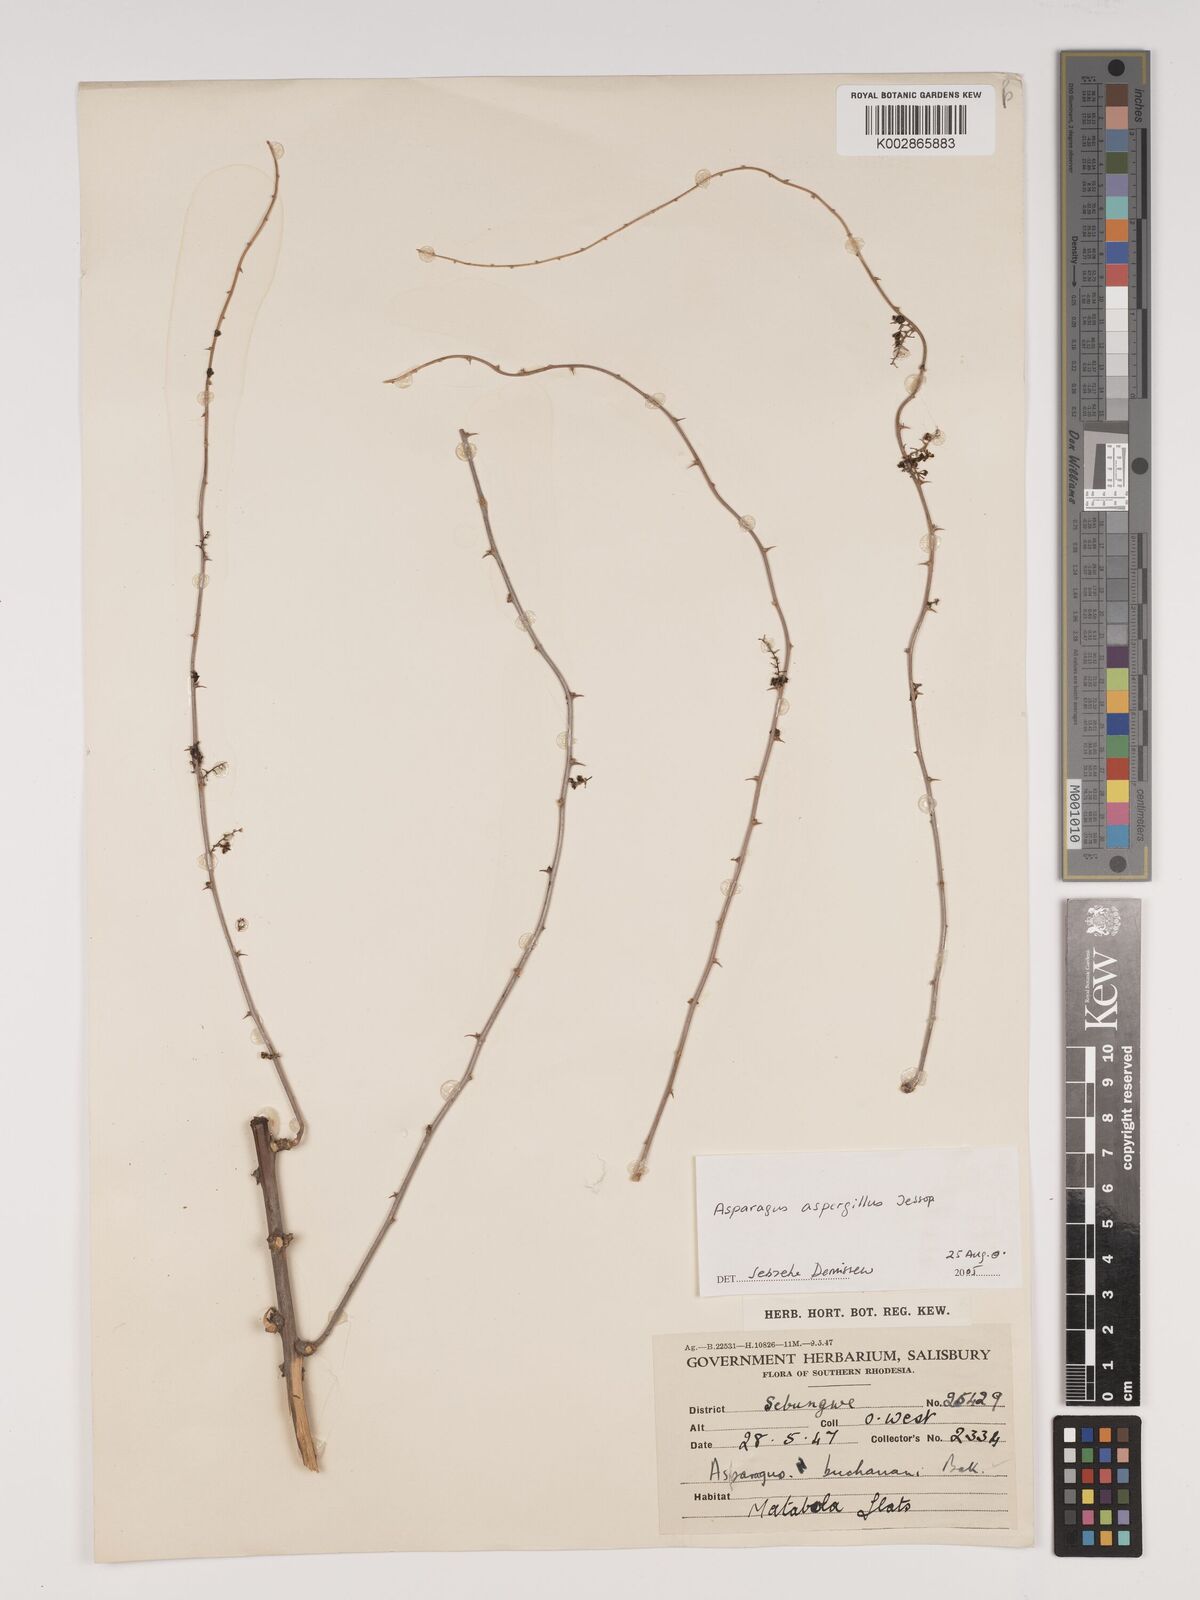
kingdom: Plantae
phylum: Tracheophyta
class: Liliopsida
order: Asparagales
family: Asparagaceae
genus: Asparagus
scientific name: Asparagus aspergillus
